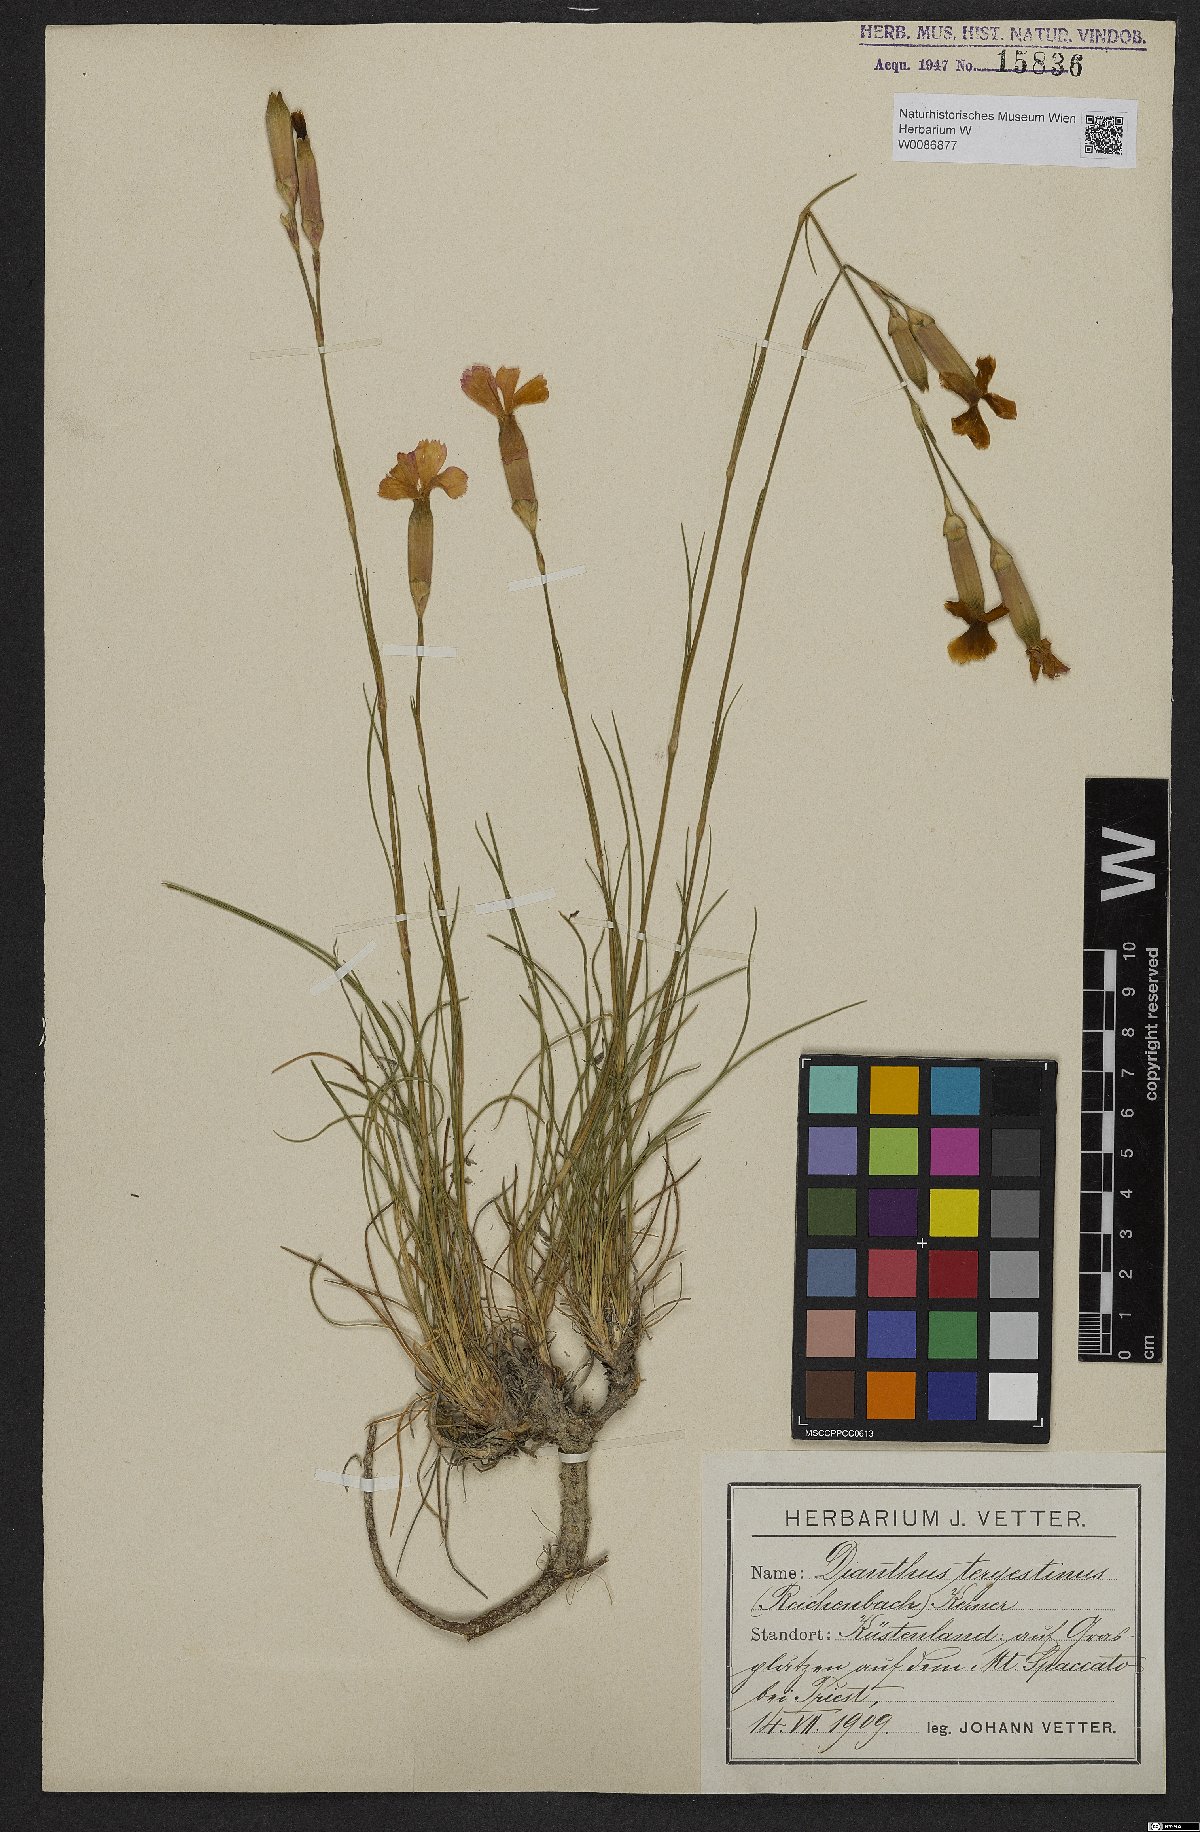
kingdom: Plantae
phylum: Tracheophyta
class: Magnoliopsida
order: Caryophyllales
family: Caryophyllaceae
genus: Dianthus
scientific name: Dianthus sylvestris
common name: Wood pink
